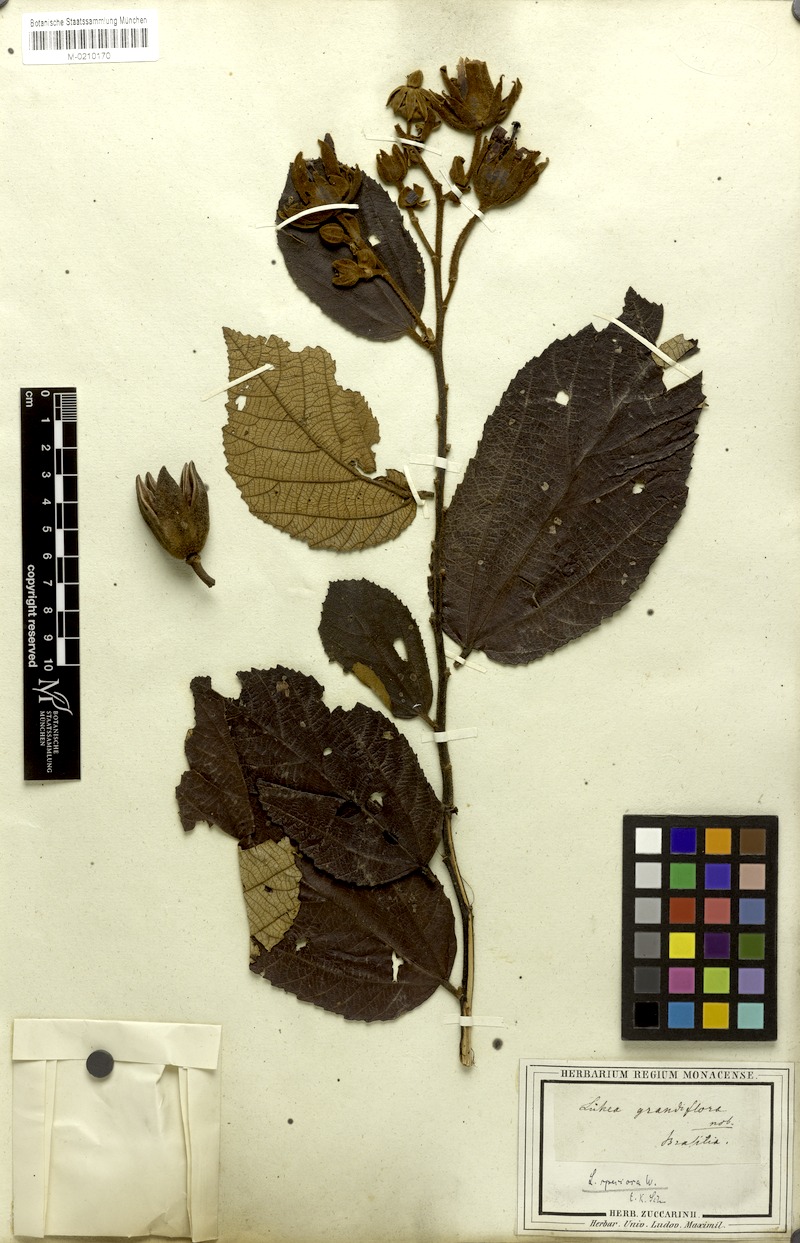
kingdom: Plantae
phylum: Tracheophyta
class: Magnoliopsida
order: Malvales
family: Malvaceae
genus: Luehea
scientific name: Luehea grandiflora
